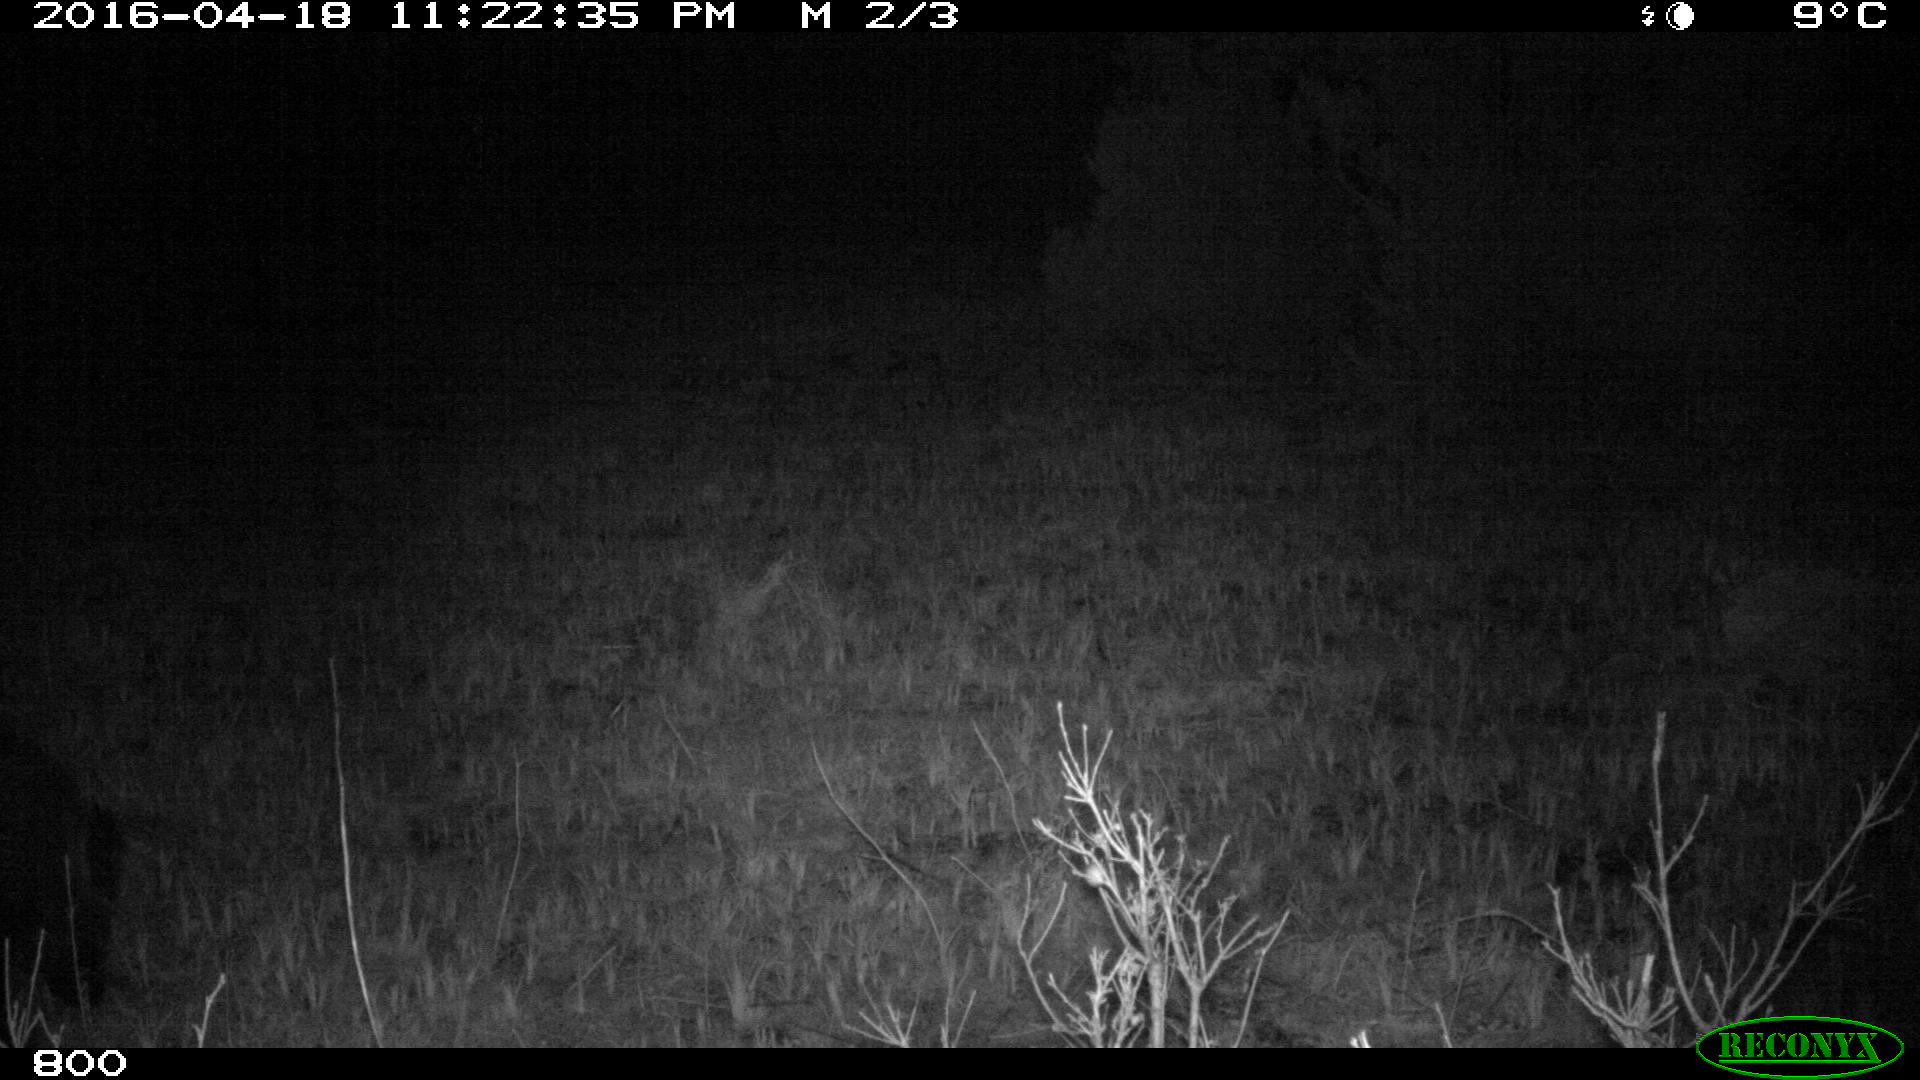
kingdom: Animalia
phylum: Chordata
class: Mammalia
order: Artiodactyla
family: Suidae
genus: Sus
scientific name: Sus scrofa
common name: Wild boar
